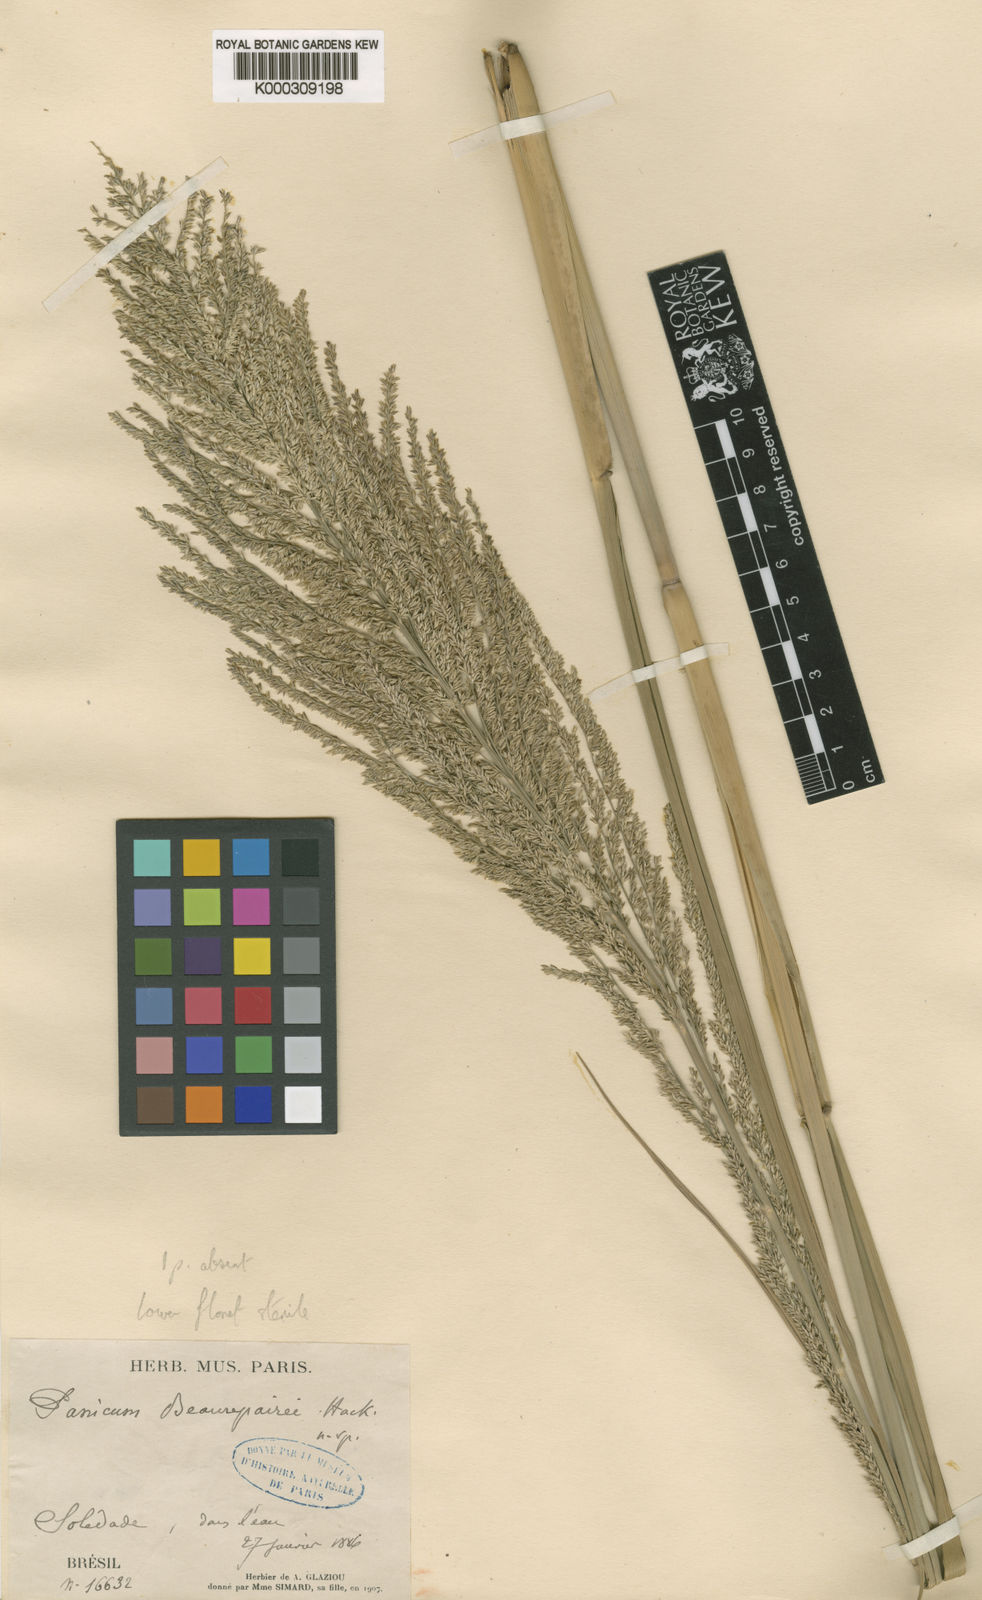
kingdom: Plantae
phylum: Tracheophyta
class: Liliopsida
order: Poales
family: Poaceae
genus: Hymenachne
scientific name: Hymenachne pernambucensis
